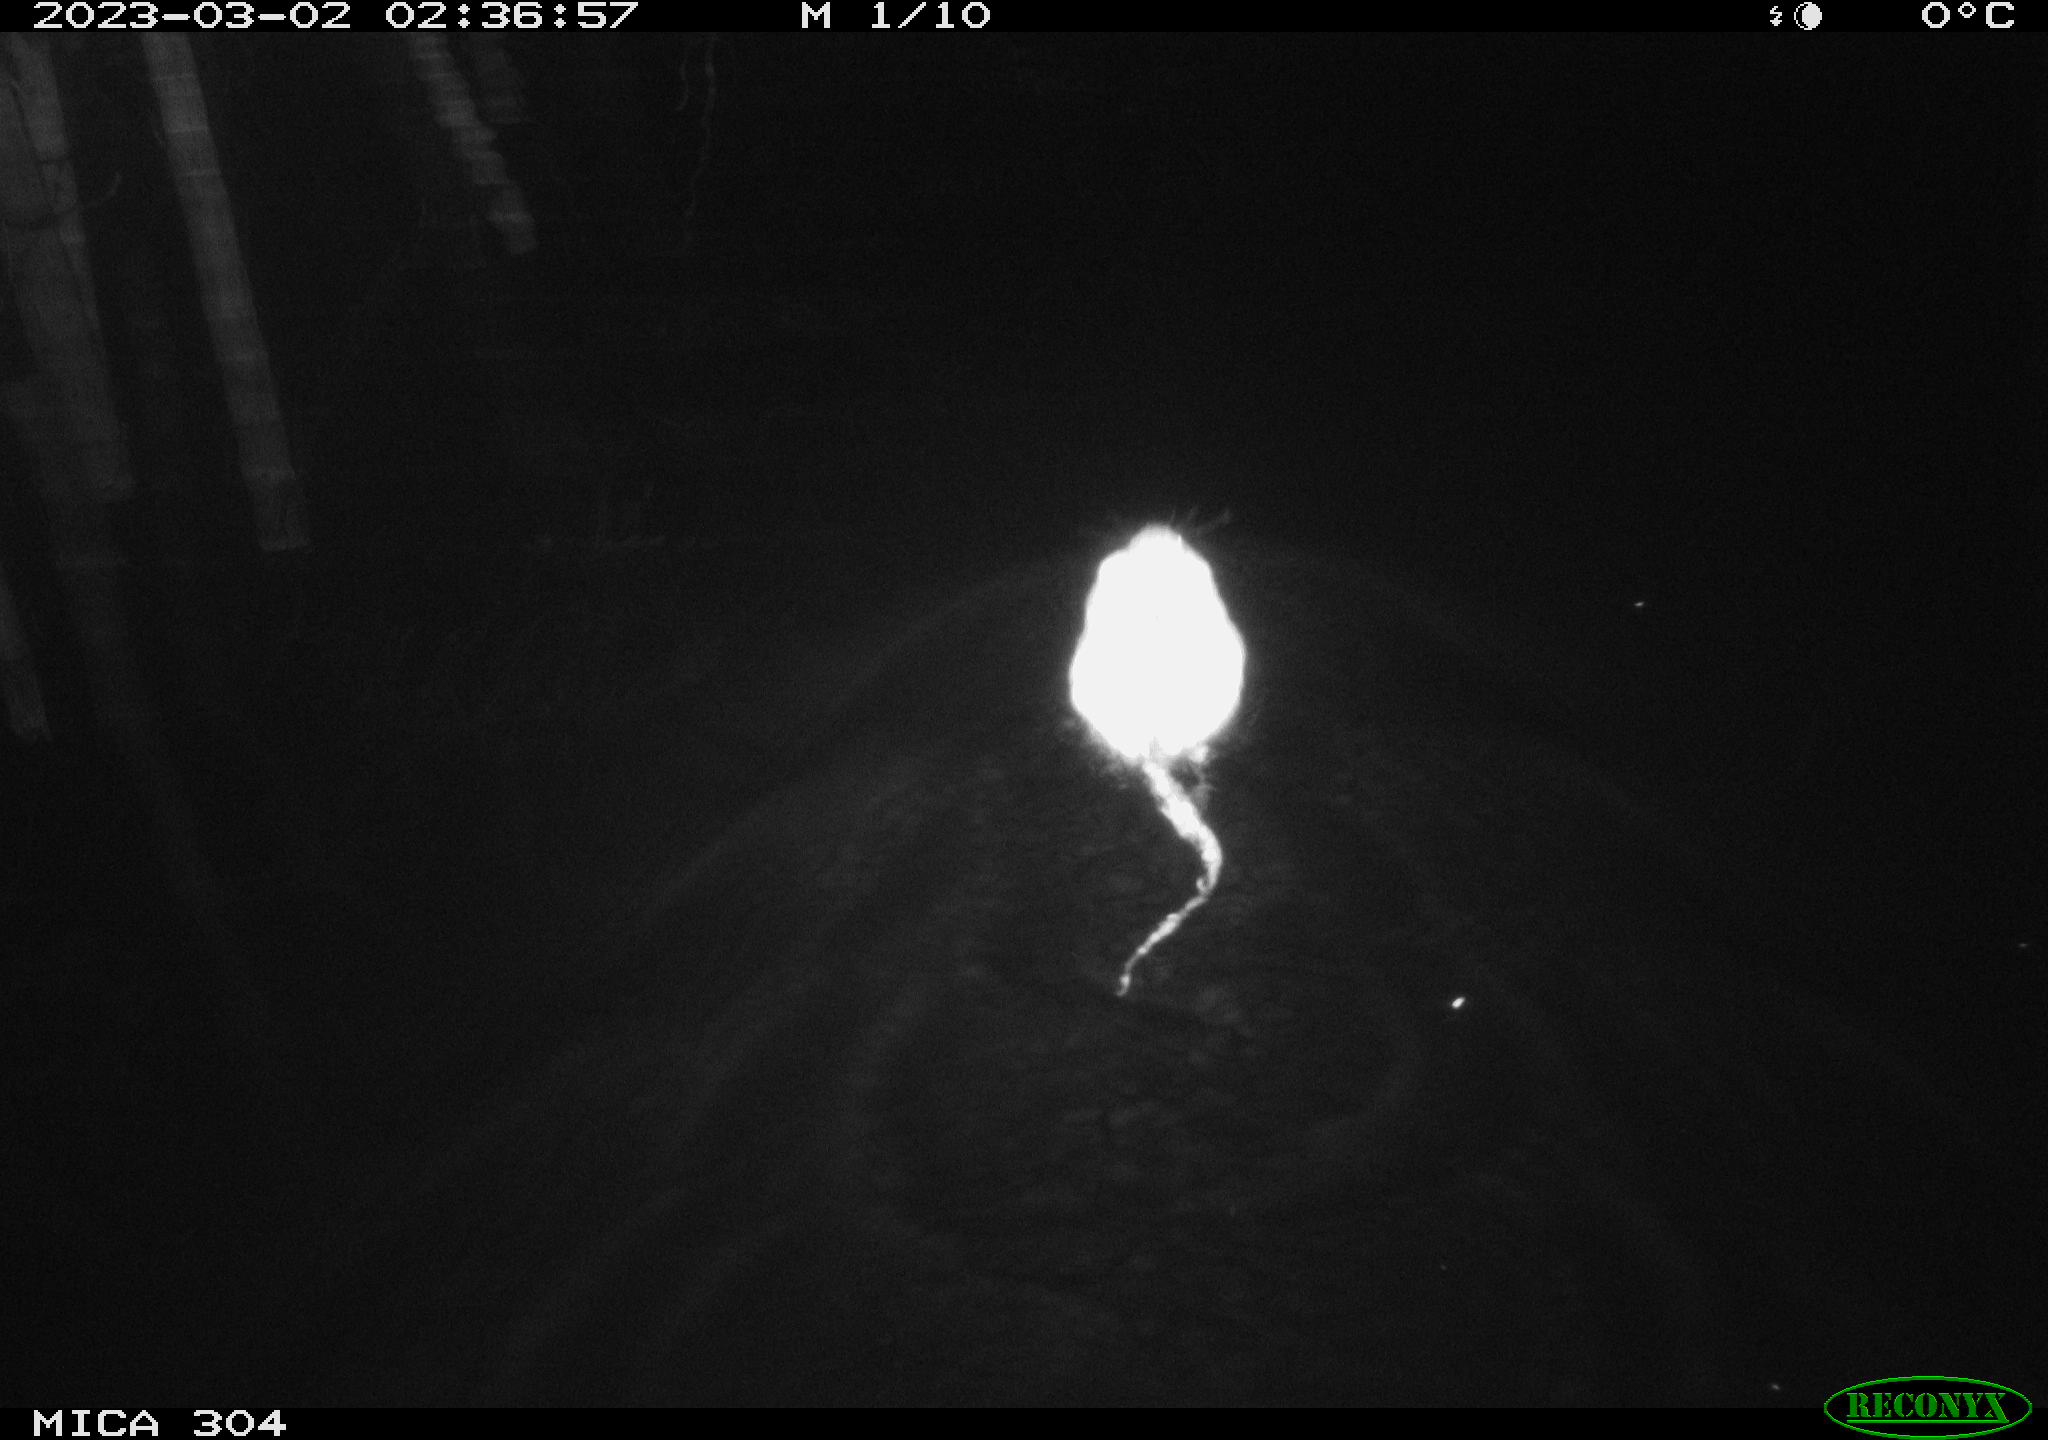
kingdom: Animalia
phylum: Chordata
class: Mammalia
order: Rodentia
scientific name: Rodentia
